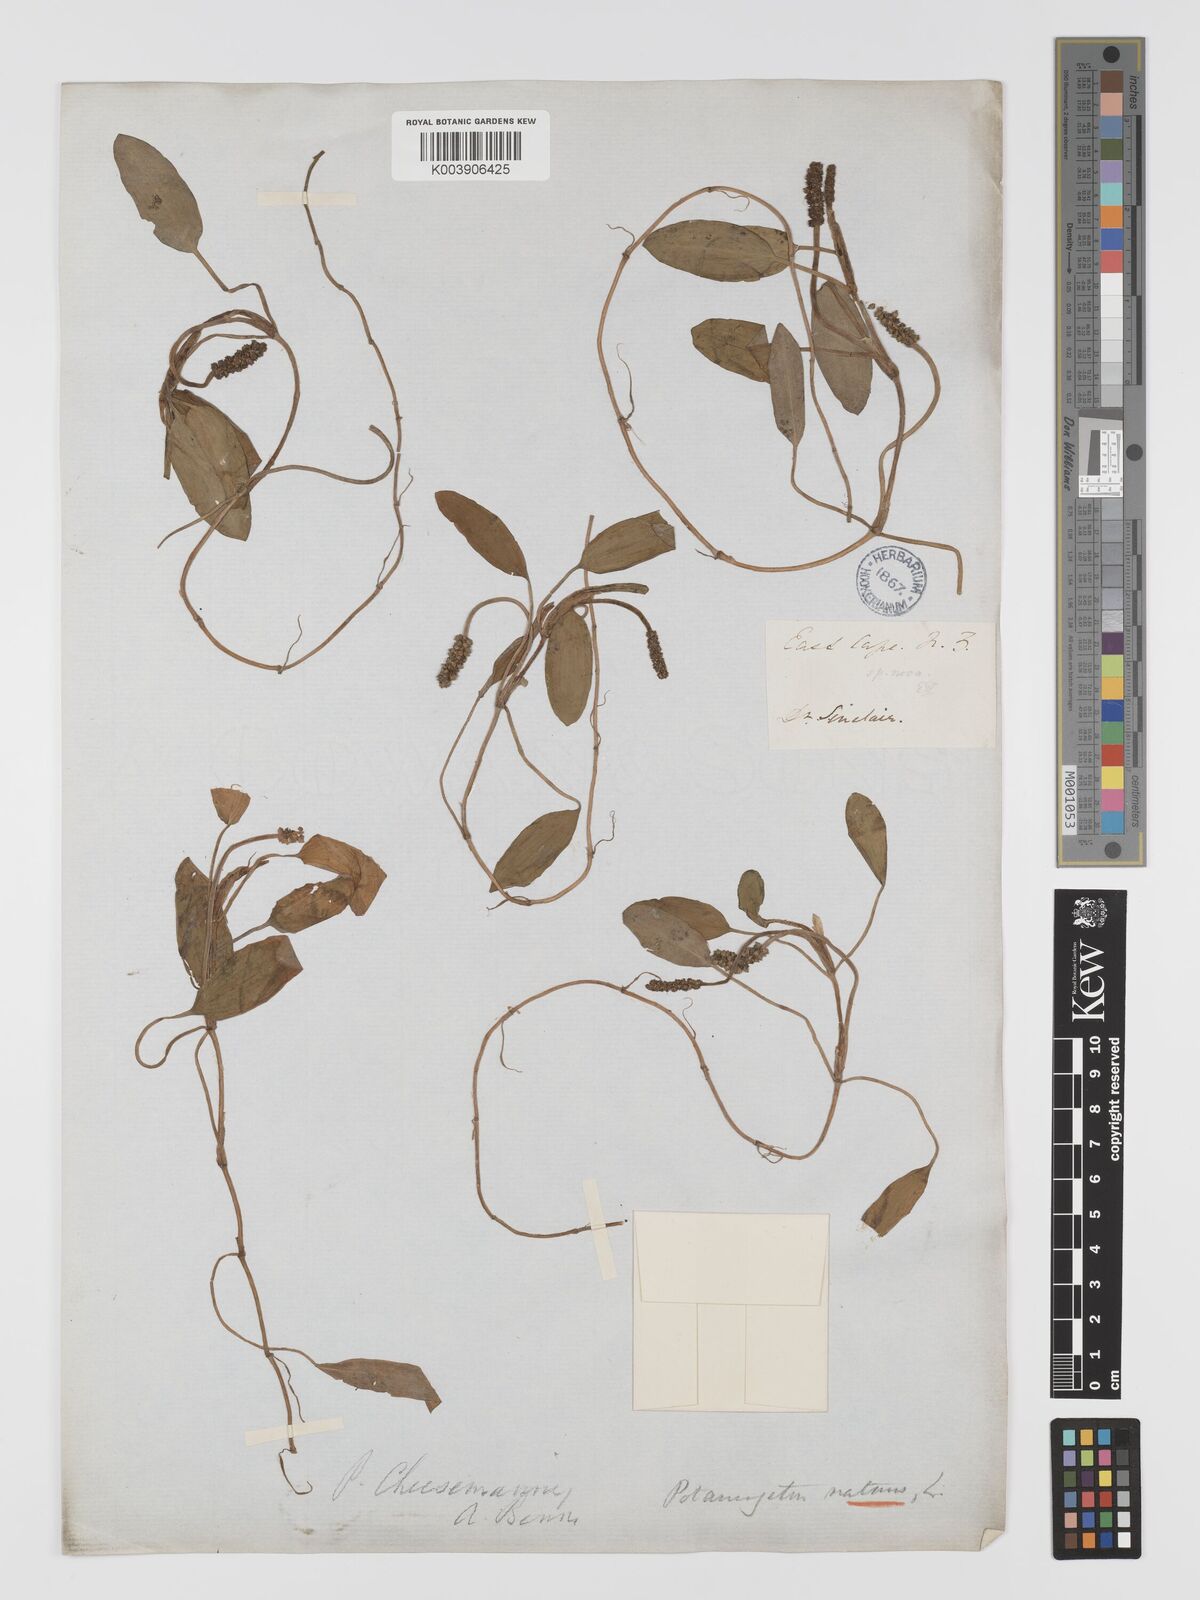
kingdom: Plantae
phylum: Tracheophyta
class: Liliopsida
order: Alismatales
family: Potamogetonaceae
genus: Potamogeton
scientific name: Potamogeton cheesemanii
